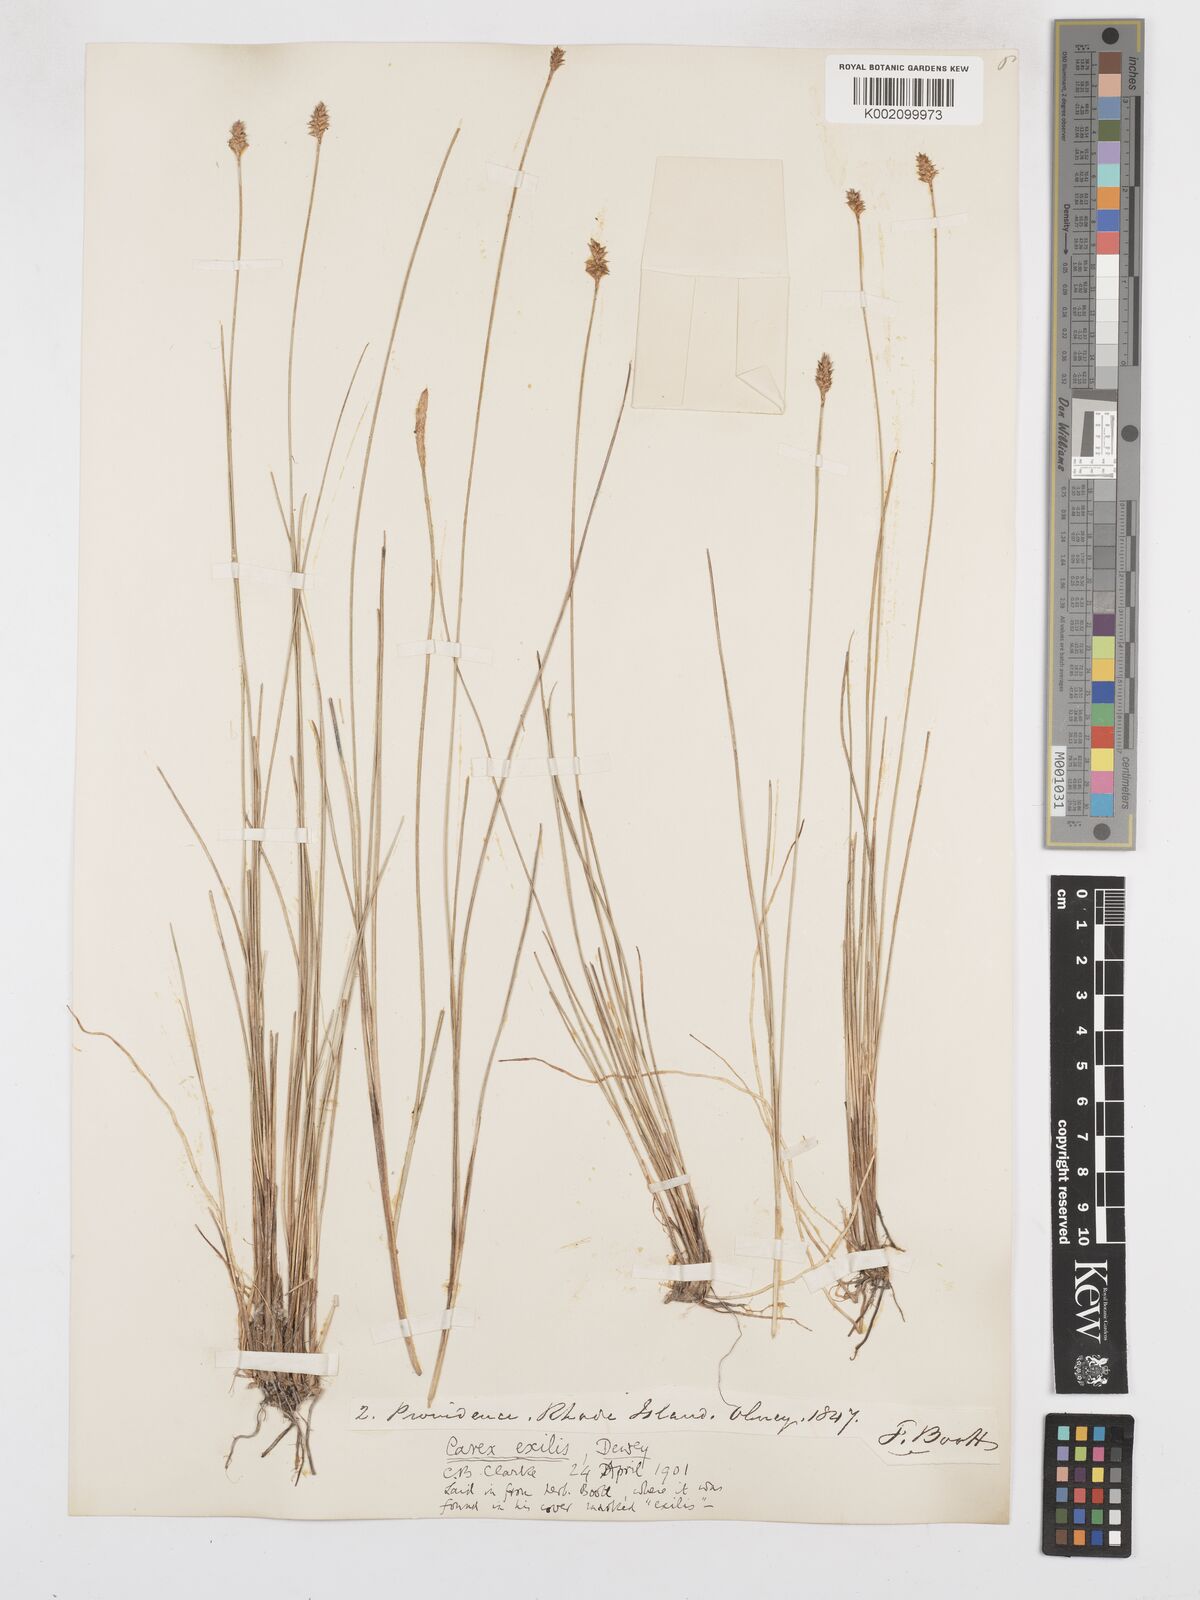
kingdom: Plantae
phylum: Tracheophyta
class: Liliopsida
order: Poales
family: Cyperaceae
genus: Carex
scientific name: Carex exilis
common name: Coastal sedge
